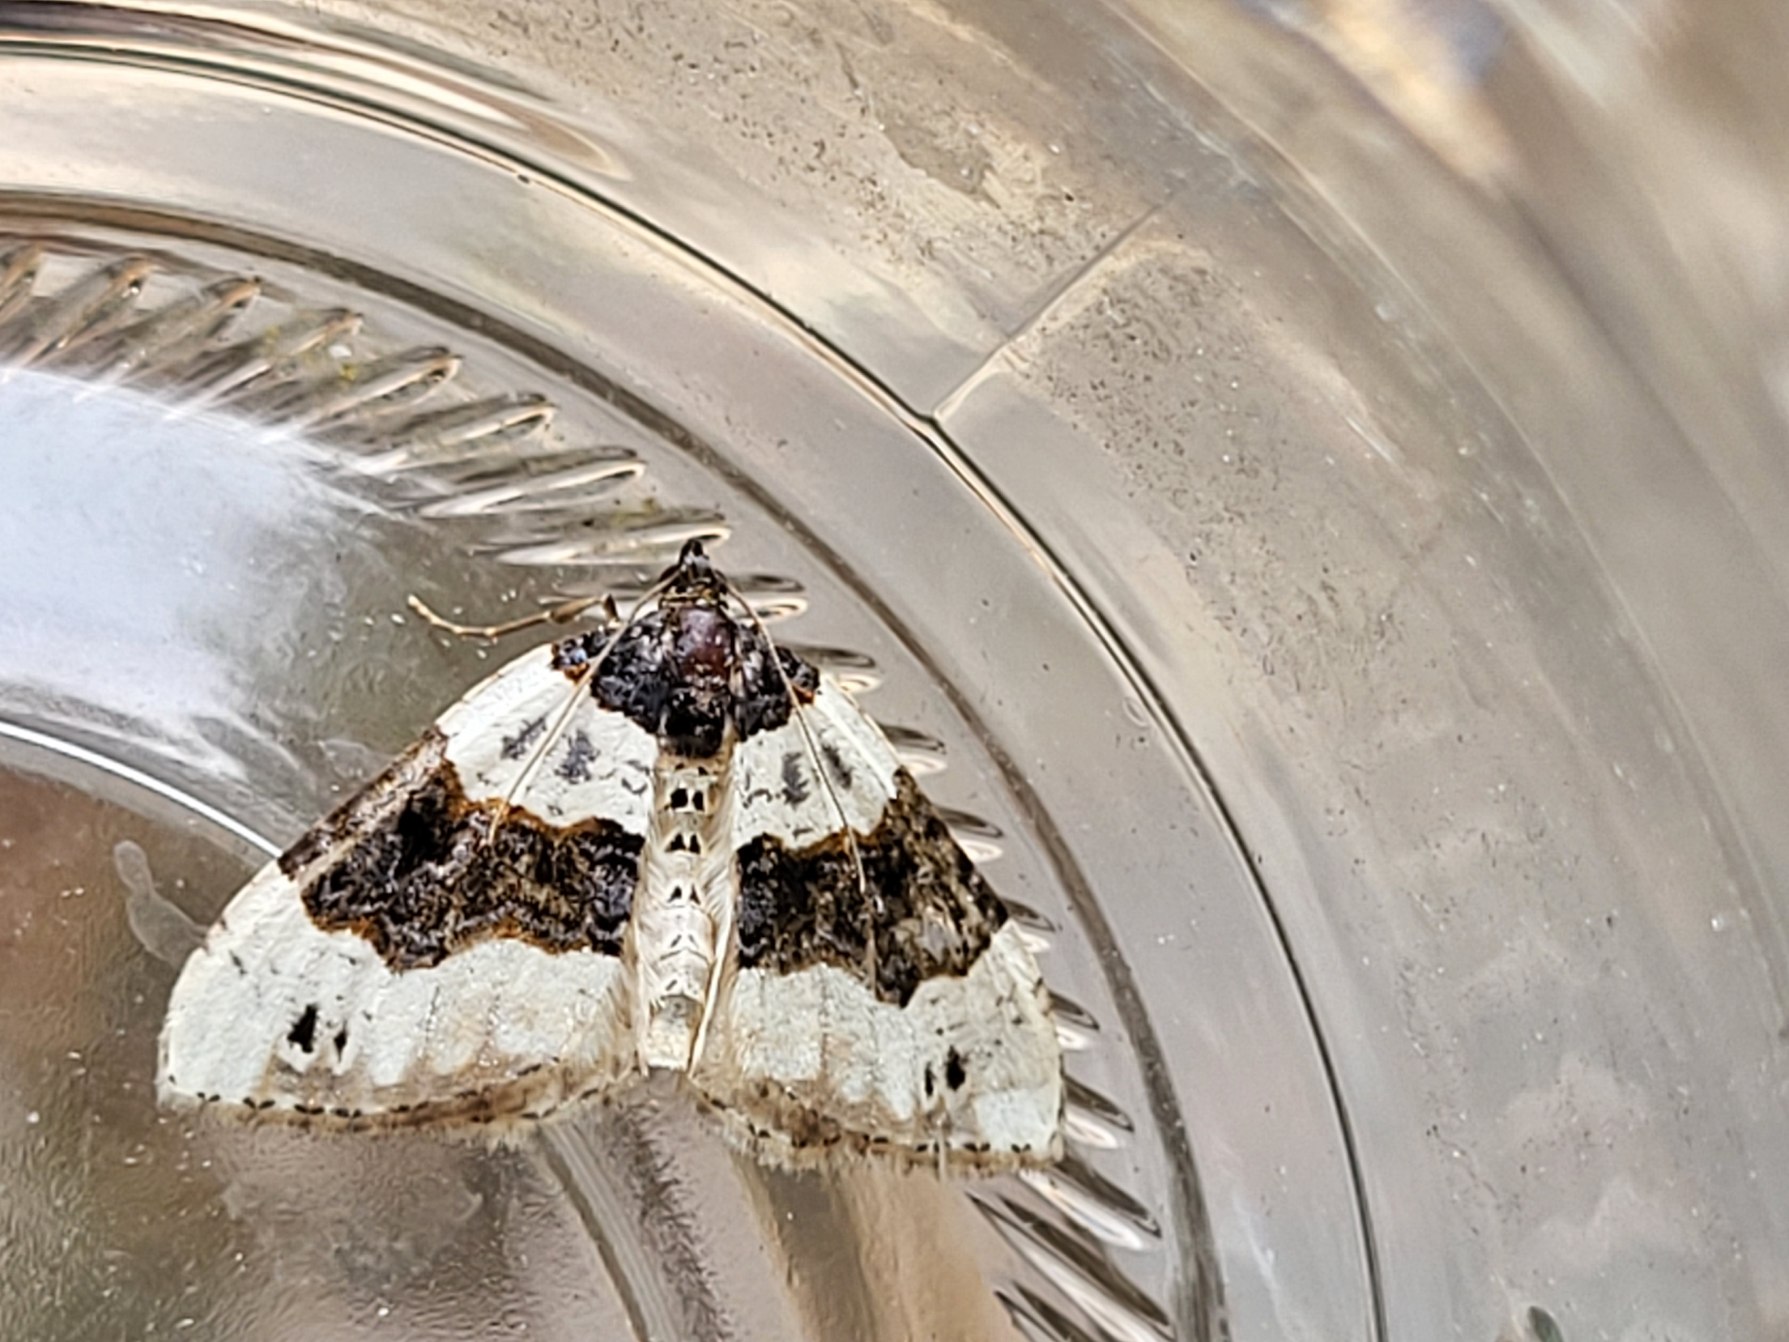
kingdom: Animalia
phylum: Arthropoda
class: Insecta
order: Lepidoptera
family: Geometridae
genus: Cosmorhoe
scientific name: Cosmorhoe ocellata
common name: Snerre-bladmåler
